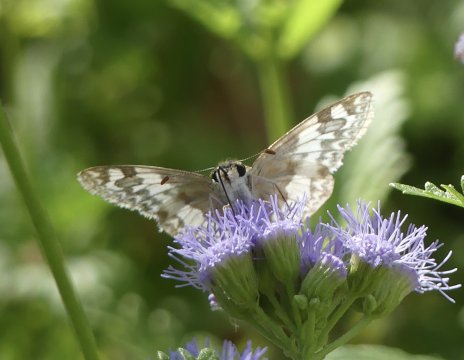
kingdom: Animalia
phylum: Arthropoda
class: Insecta
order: Lepidoptera
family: Hesperiidae
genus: Heliopetes
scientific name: Heliopetes ericetorum
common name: Northern White-Skipper
